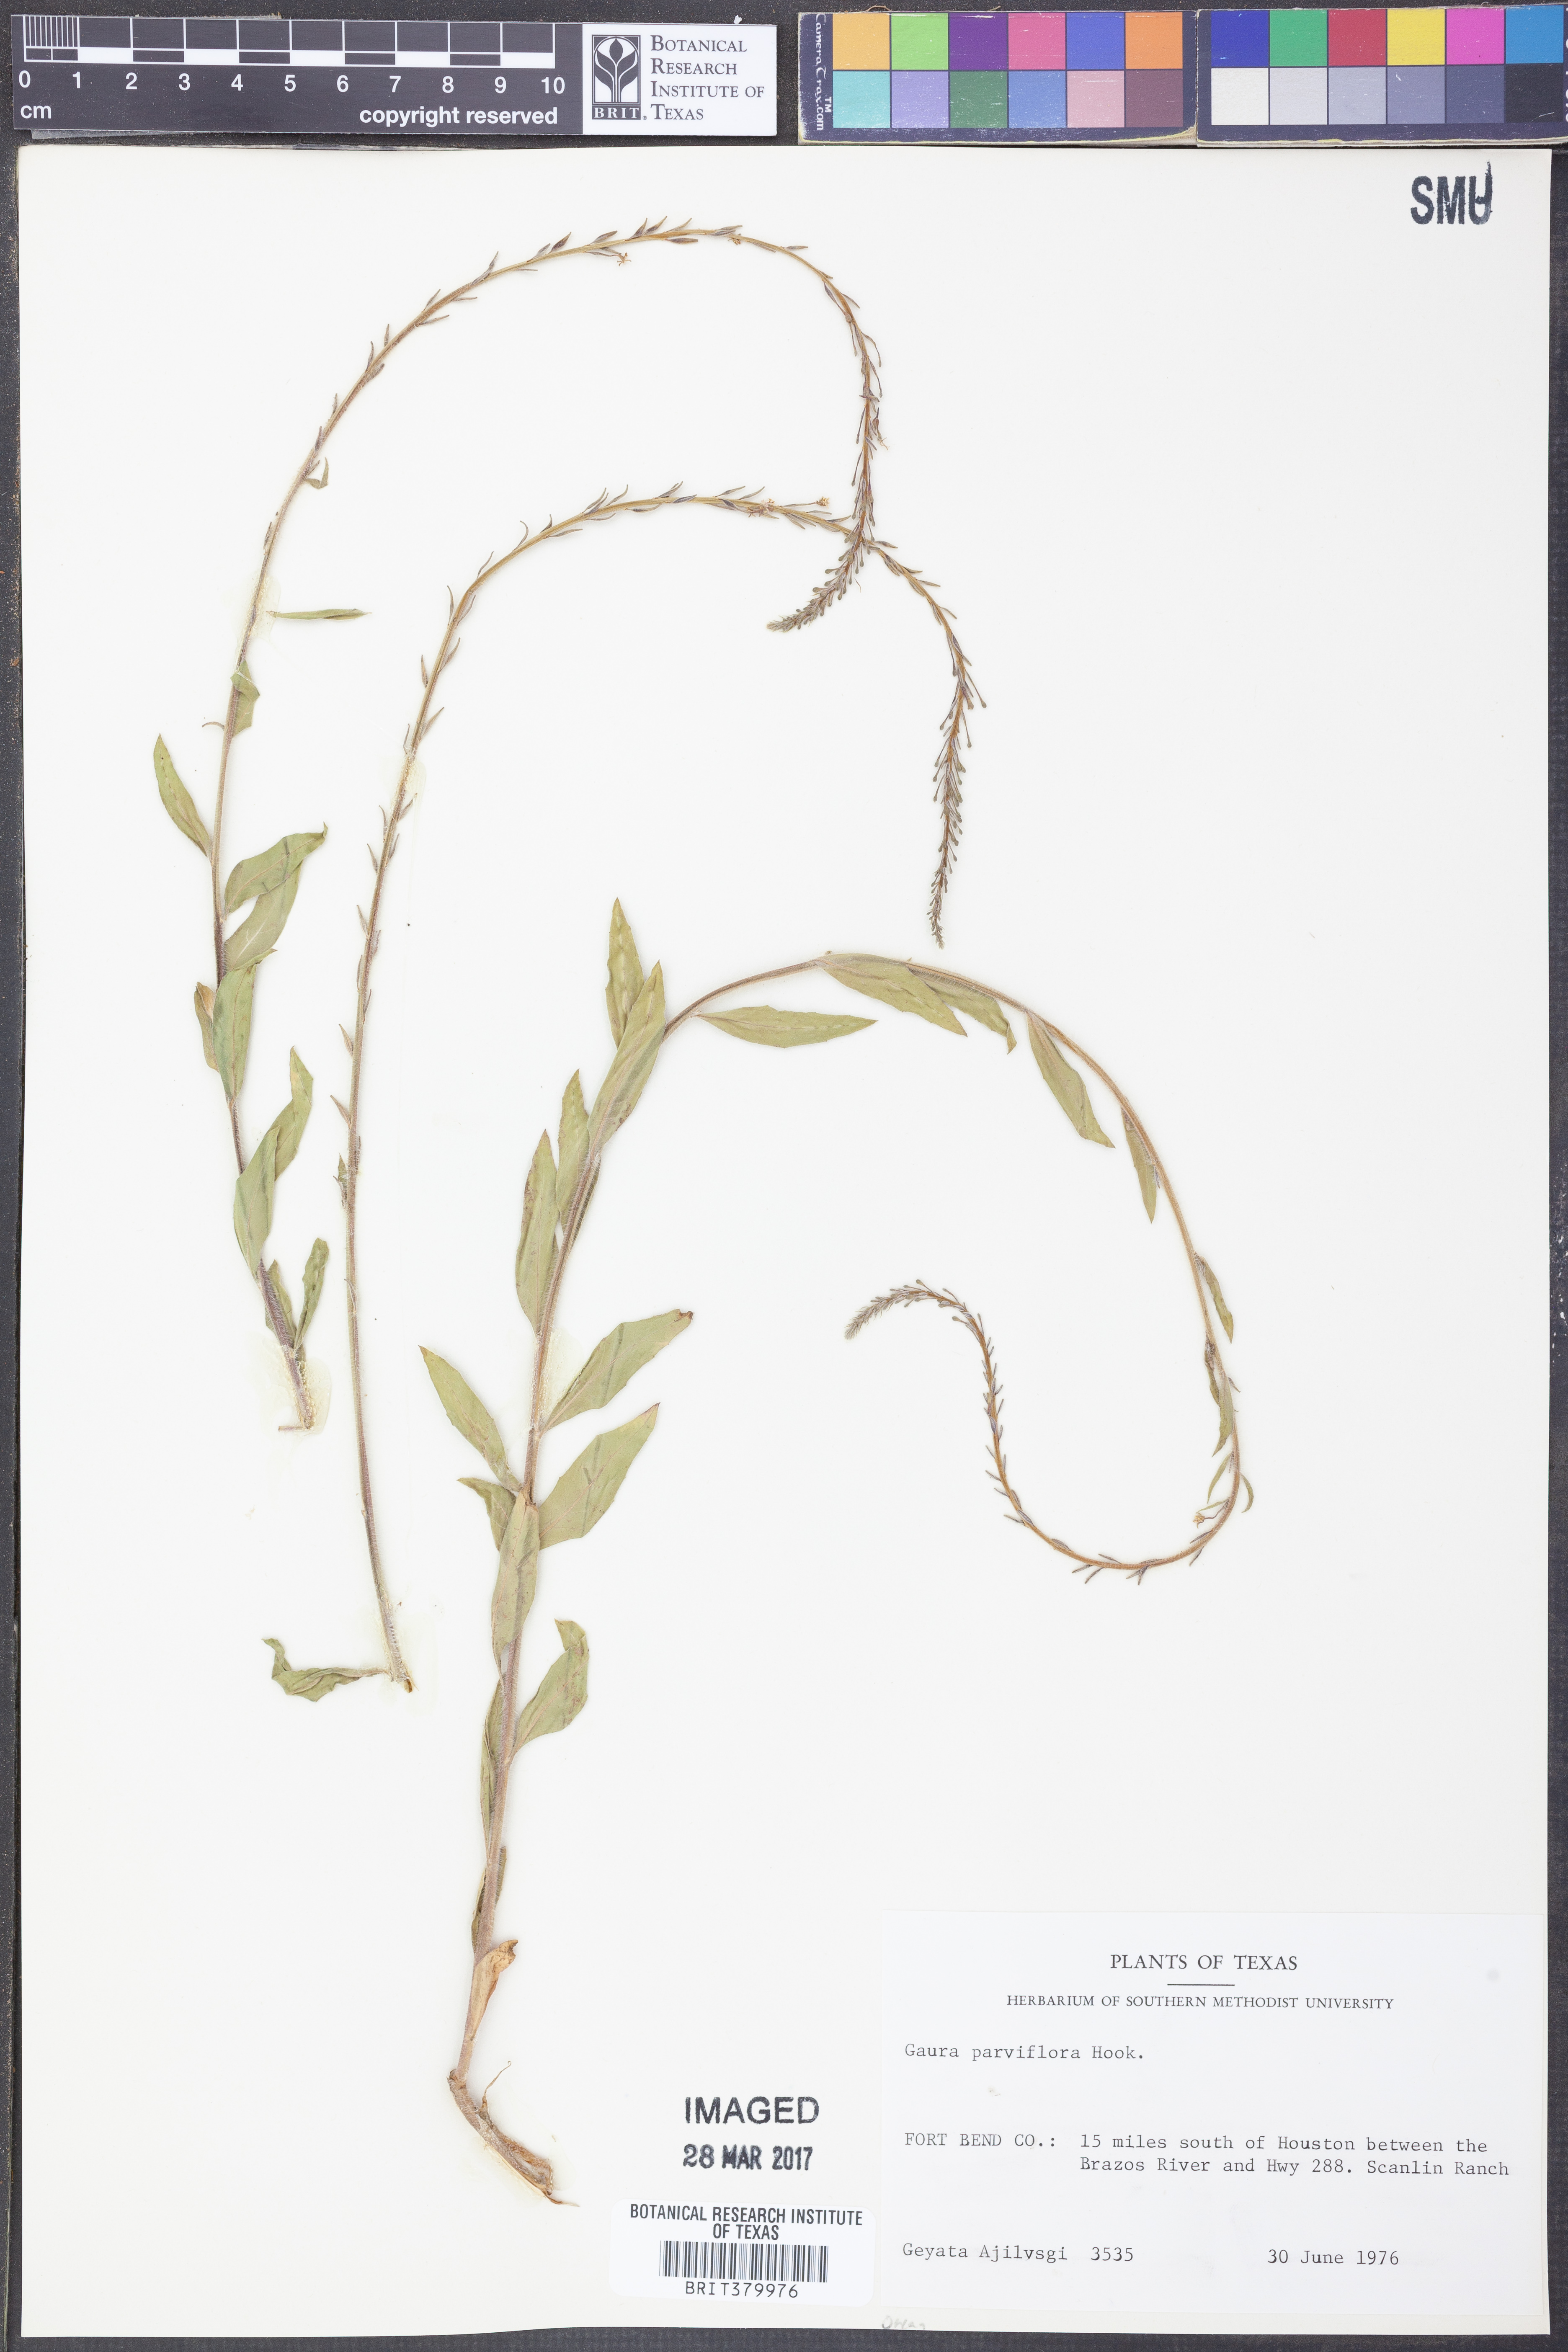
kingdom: Plantae
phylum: Tracheophyta
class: Magnoliopsida
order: Myrtales
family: Onagraceae
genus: Oenothera
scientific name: Oenothera curtiflora
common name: Velvetweed
